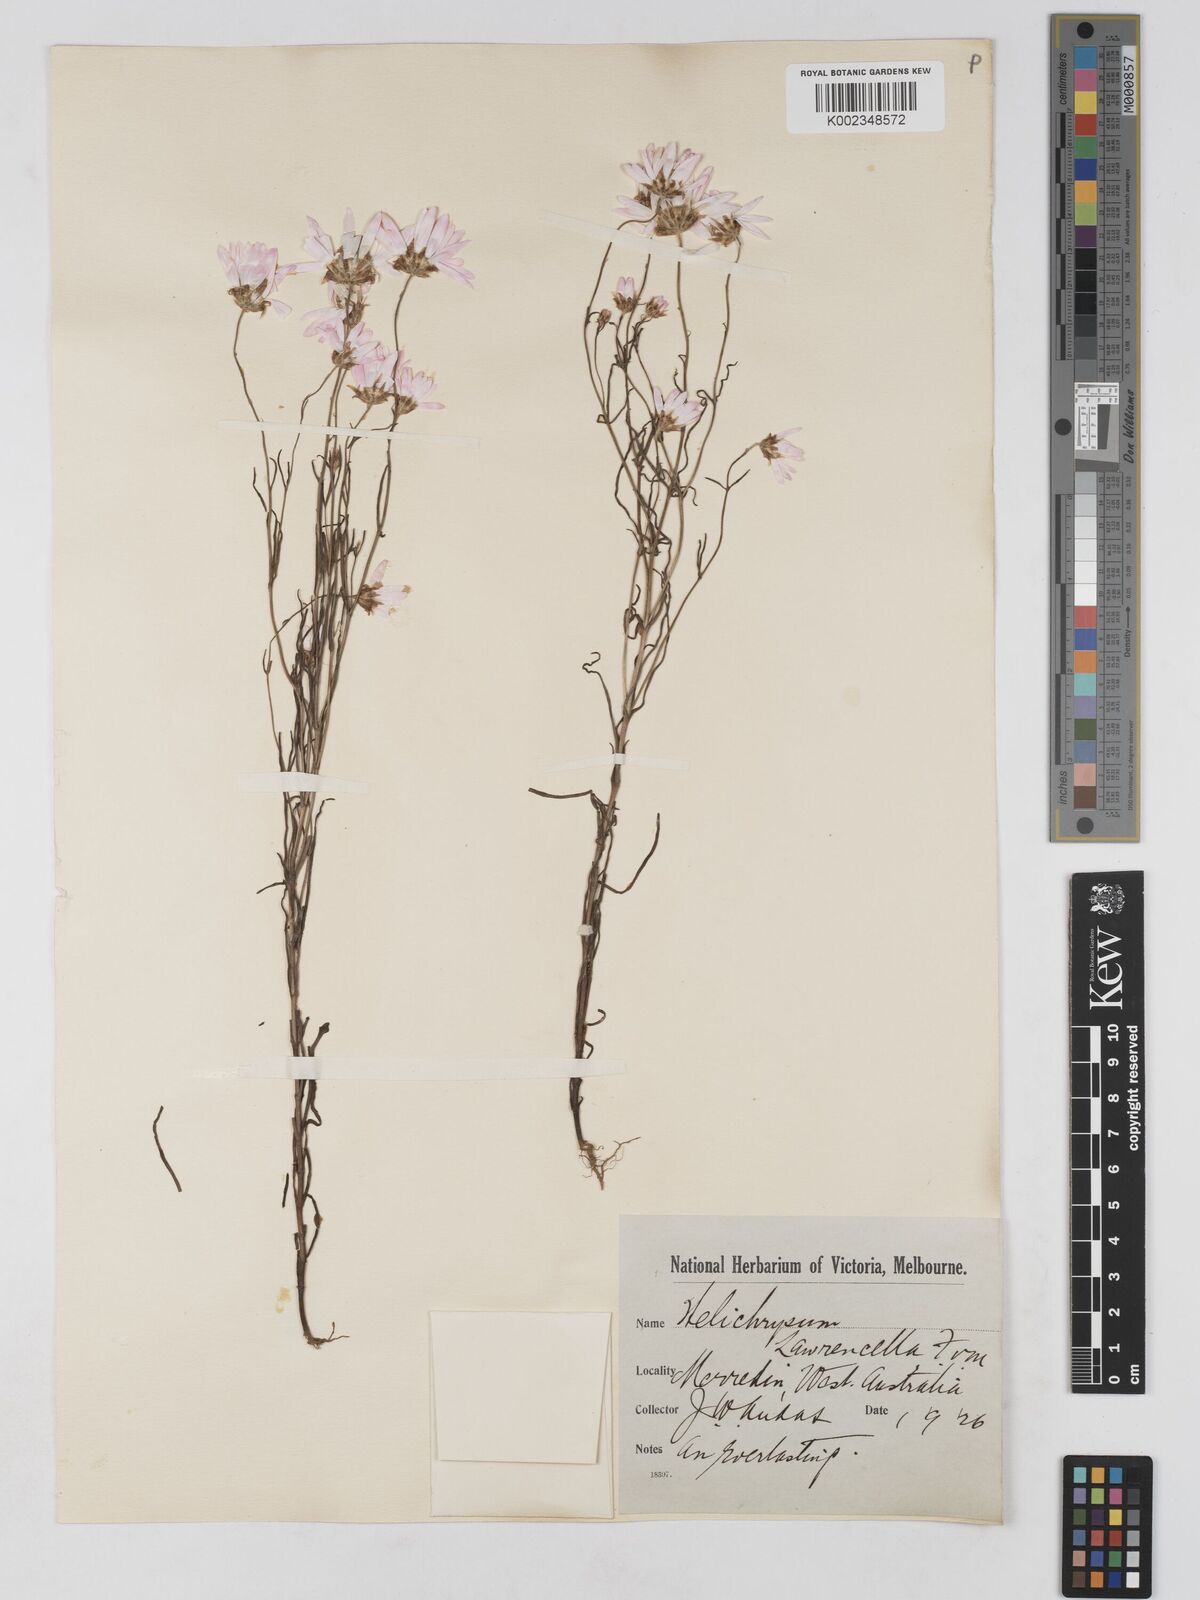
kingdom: Plantae
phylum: Tracheophyta
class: Magnoliopsida
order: Asterales
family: Asteraceae
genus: Lawrencella
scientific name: Lawrencella rosea
